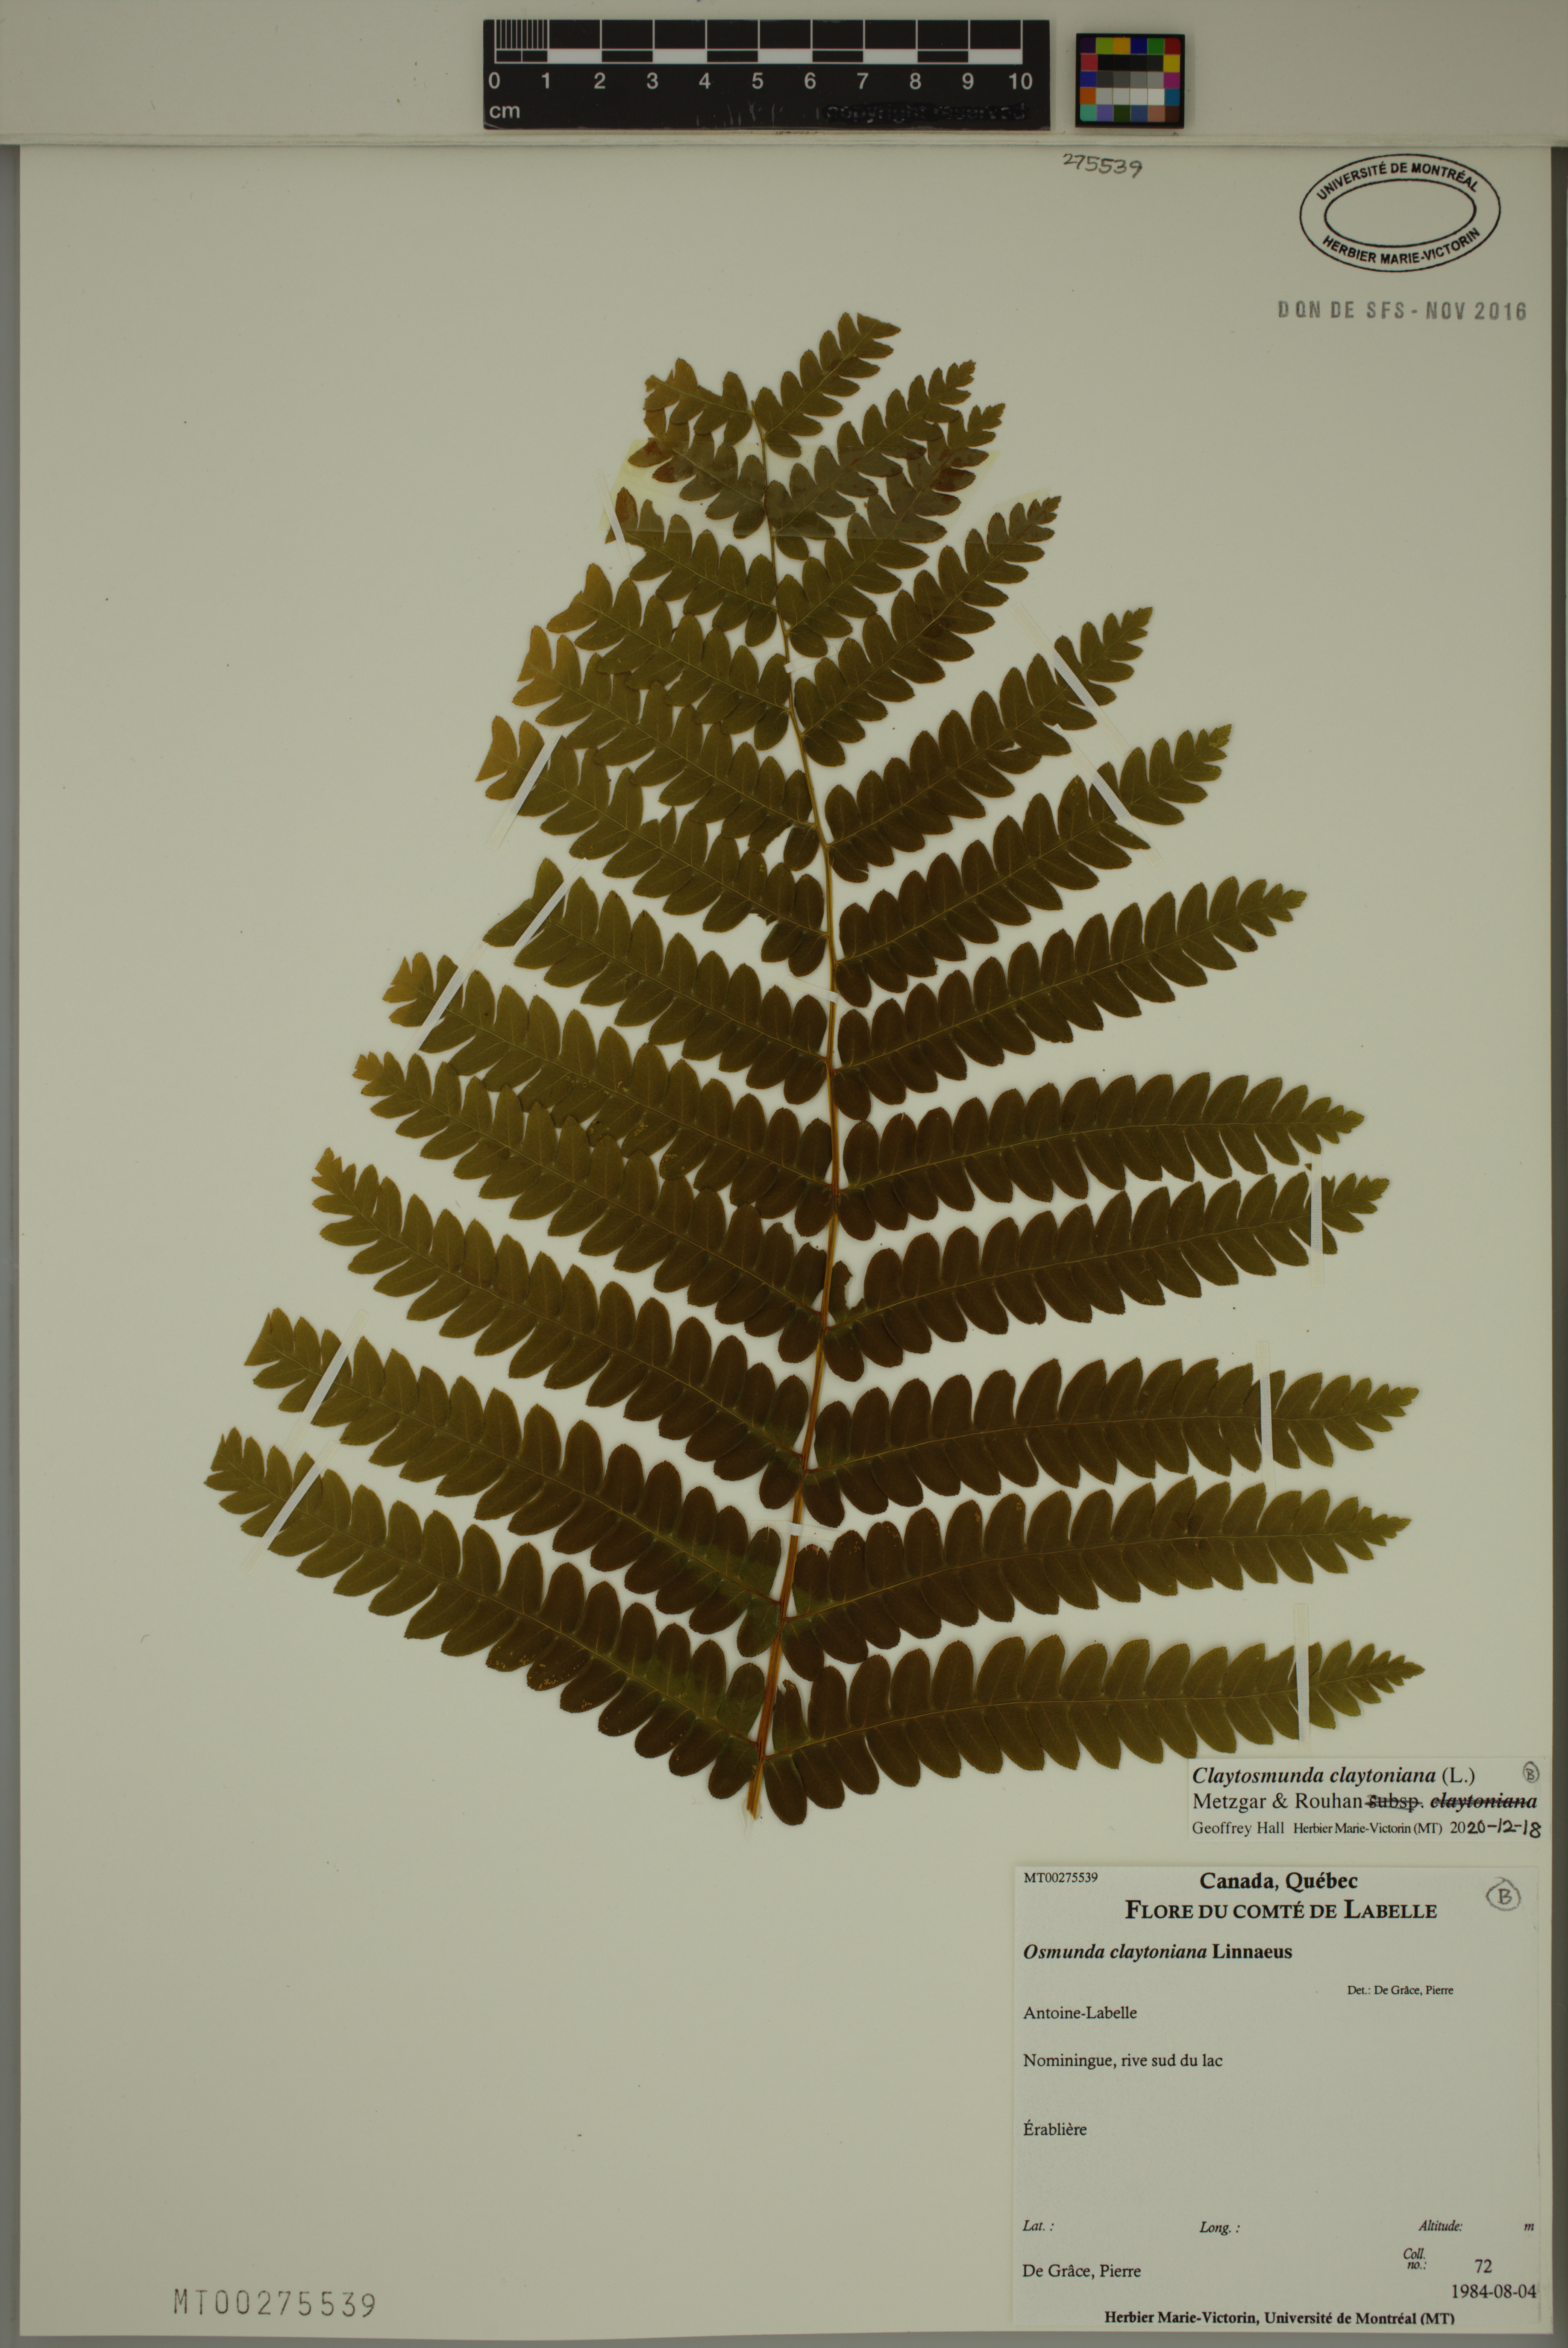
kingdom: Plantae
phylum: Tracheophyta
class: Polypodiopsida
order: Osmundales
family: Osmundaceae
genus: Claytosmunda
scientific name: Claytosmunda claytoniana
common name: Clayton's fern
